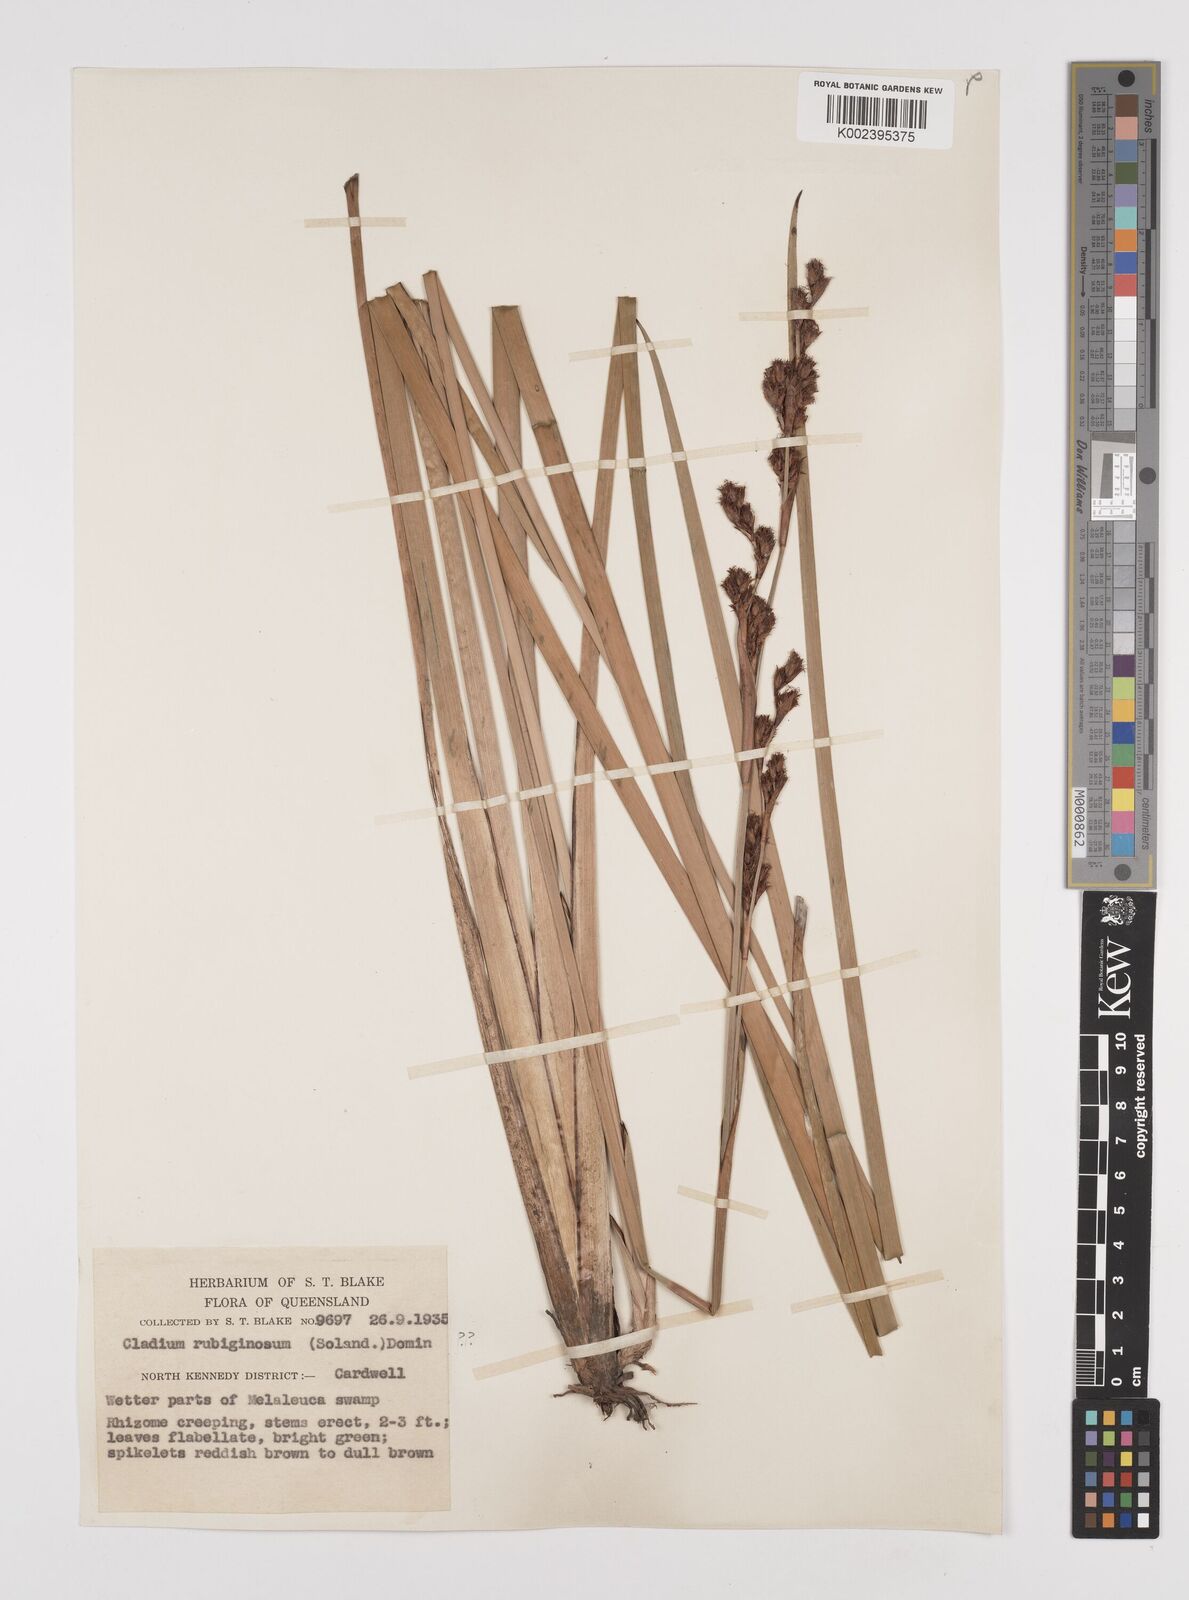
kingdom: Plantae
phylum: Tracheophyta
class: Liliopsida
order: Poales
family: Cyperaceae
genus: Machaerina
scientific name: Machaerina rubiginosa
